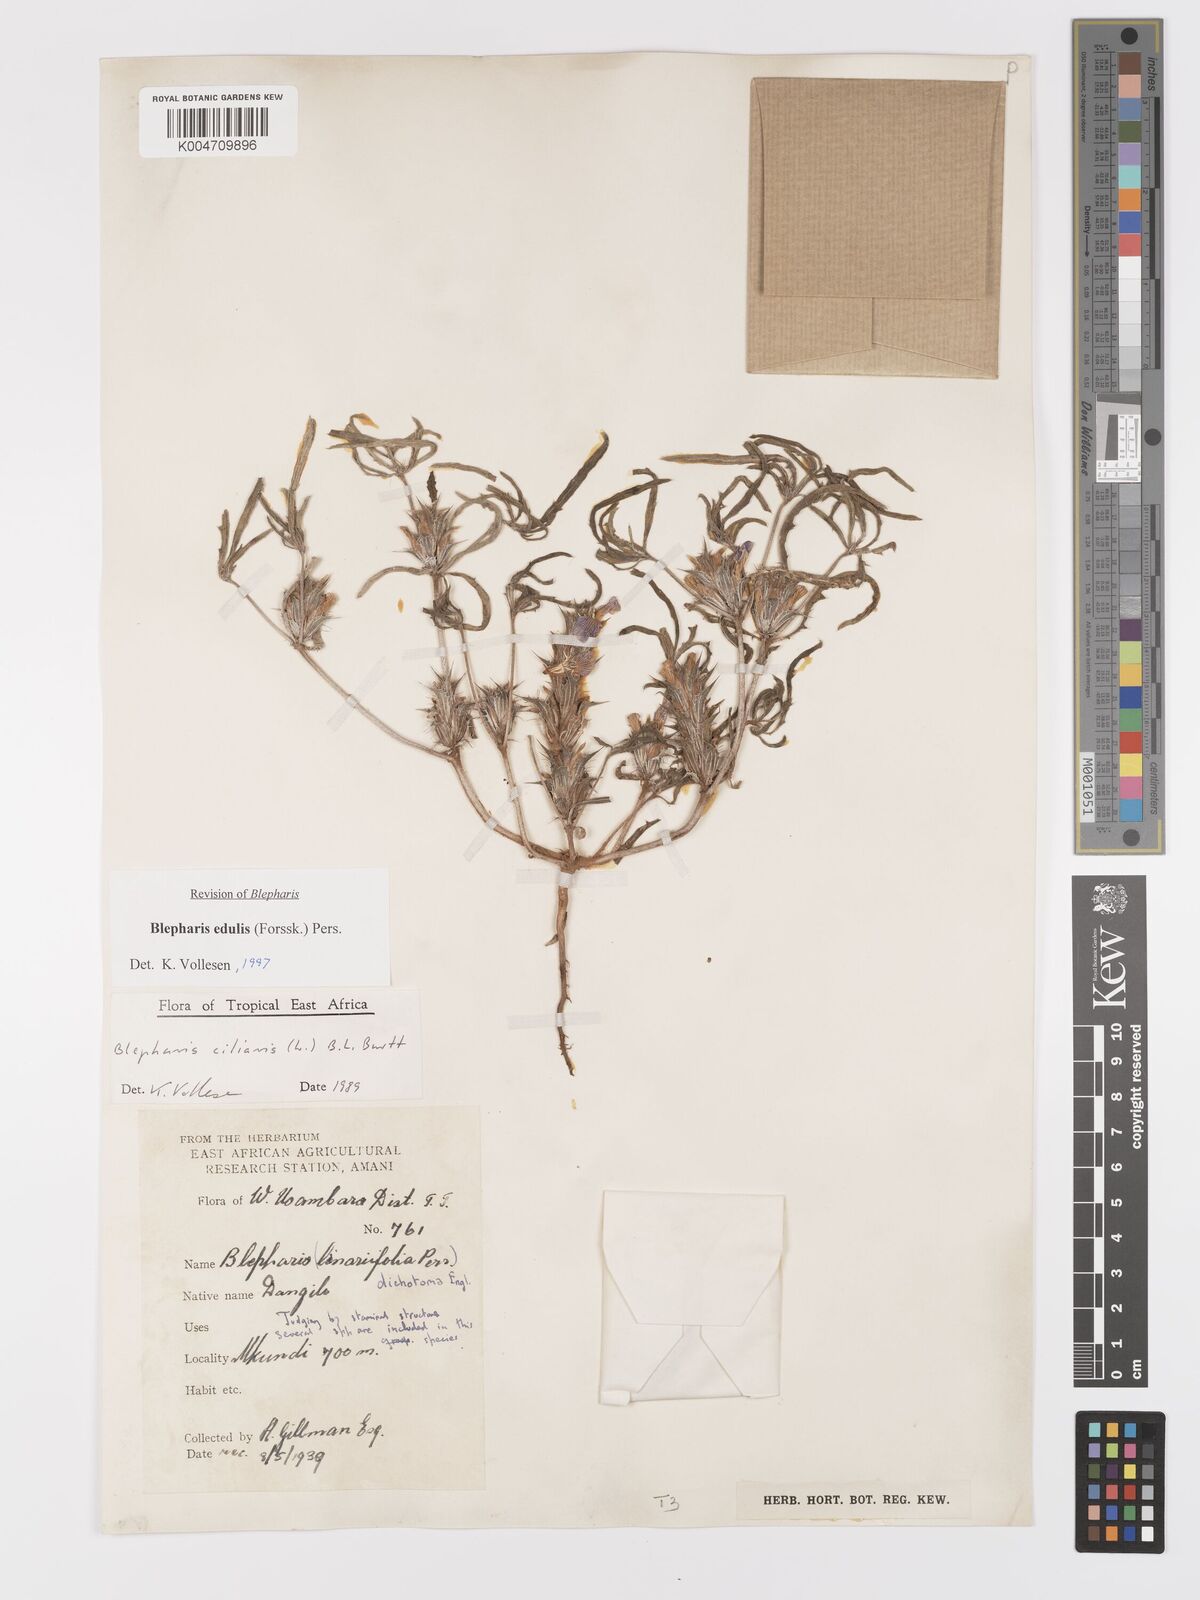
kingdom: Plantae
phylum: Tracheophyta
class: Magnoliopsida
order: Lamiales
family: Acanthaceae
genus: Blepharis
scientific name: Blepharis edulis
